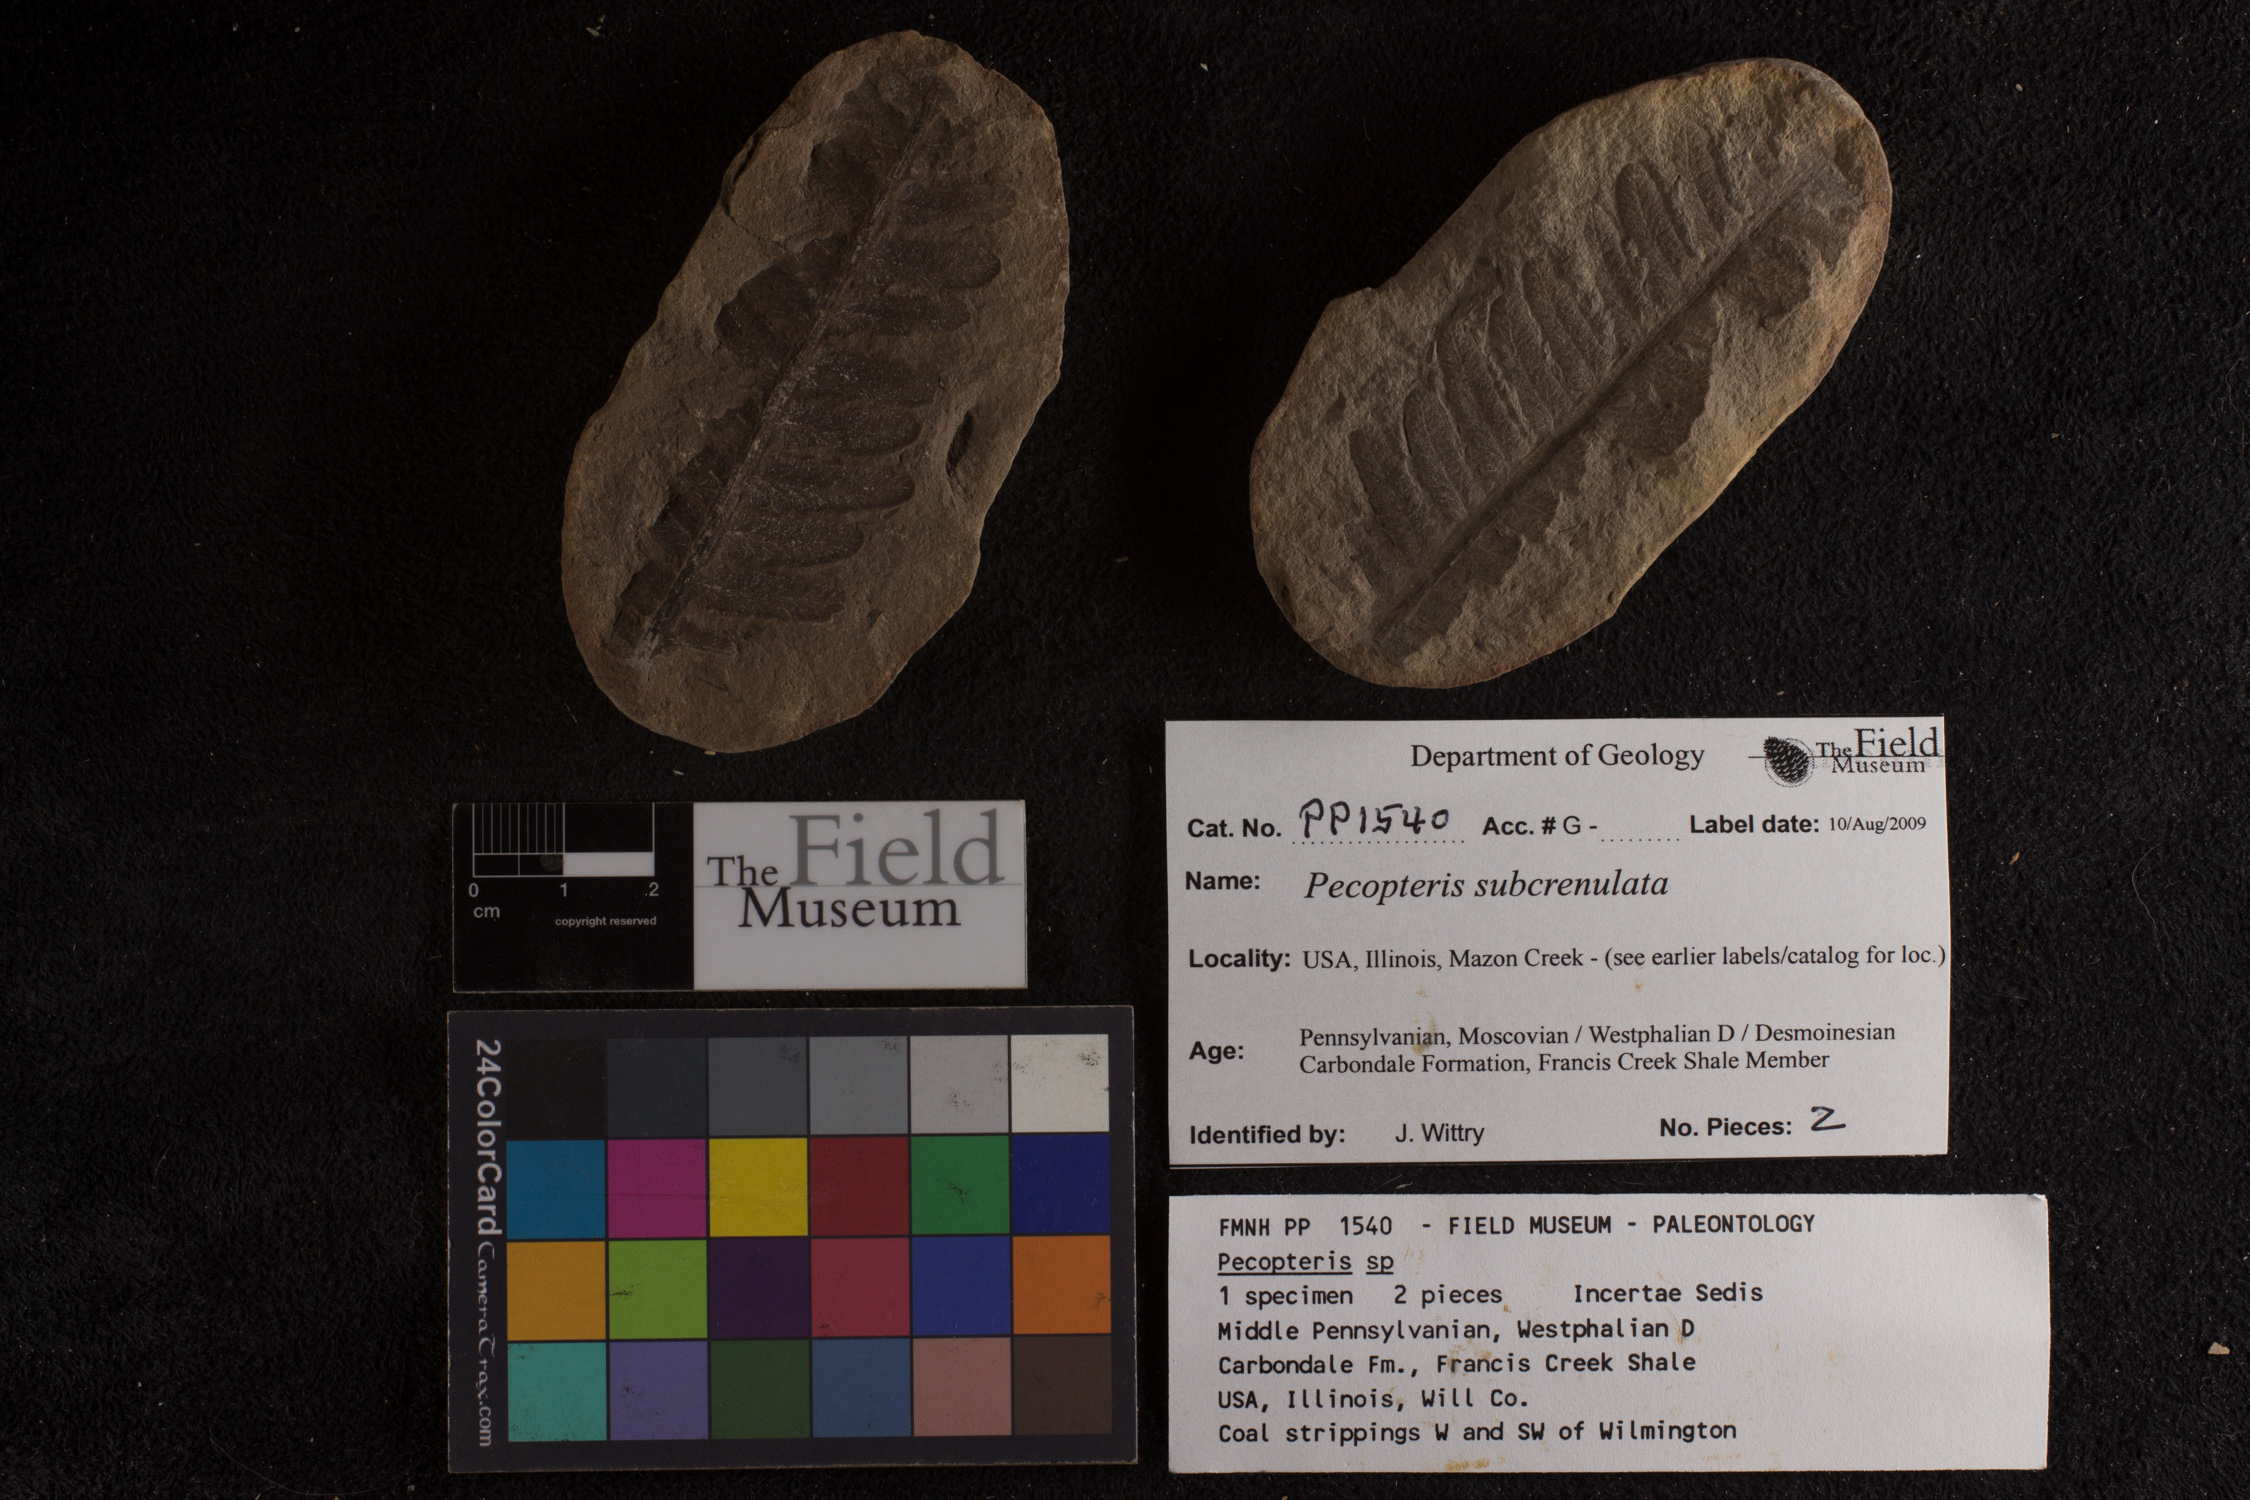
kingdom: Plantae
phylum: Tracheophyta
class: Polypodiopsida
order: Marattiales
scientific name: Marattiales
